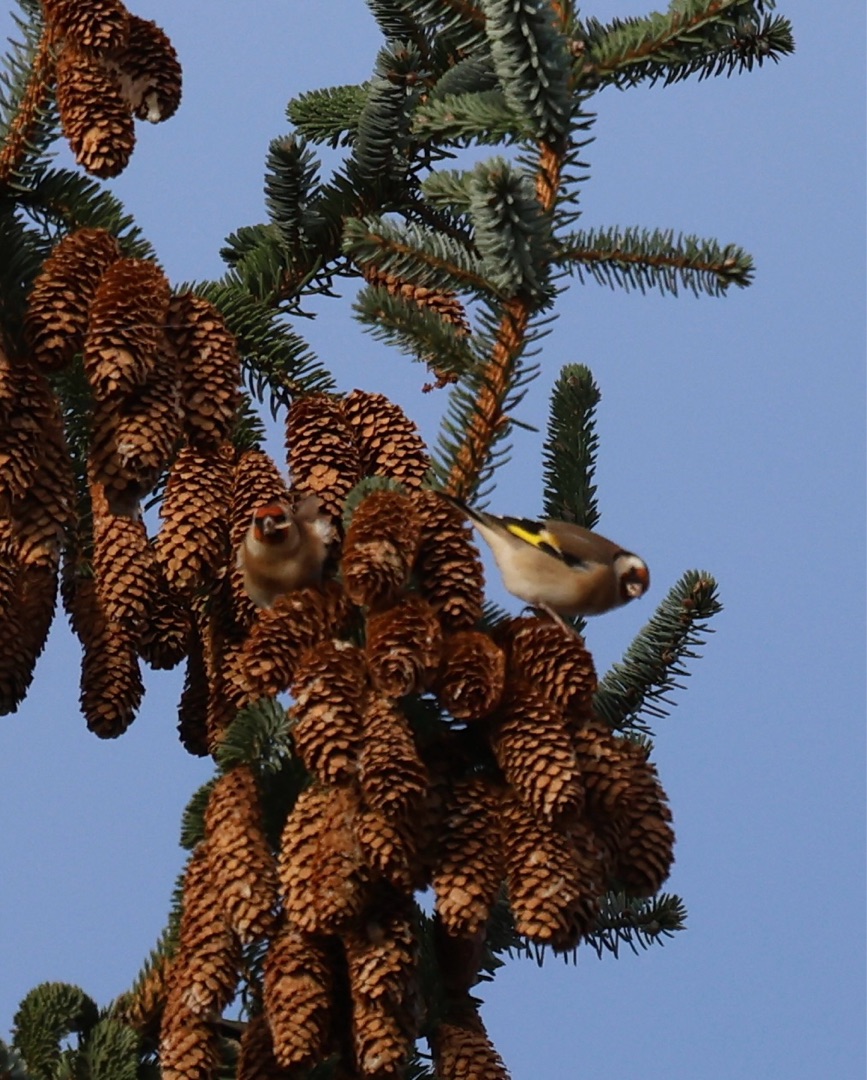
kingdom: Animalia
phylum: Chordata
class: Aves
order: Passeriformes
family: Fringillidae
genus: Carduelis
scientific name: Carduelis carduelis
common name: Stillits
